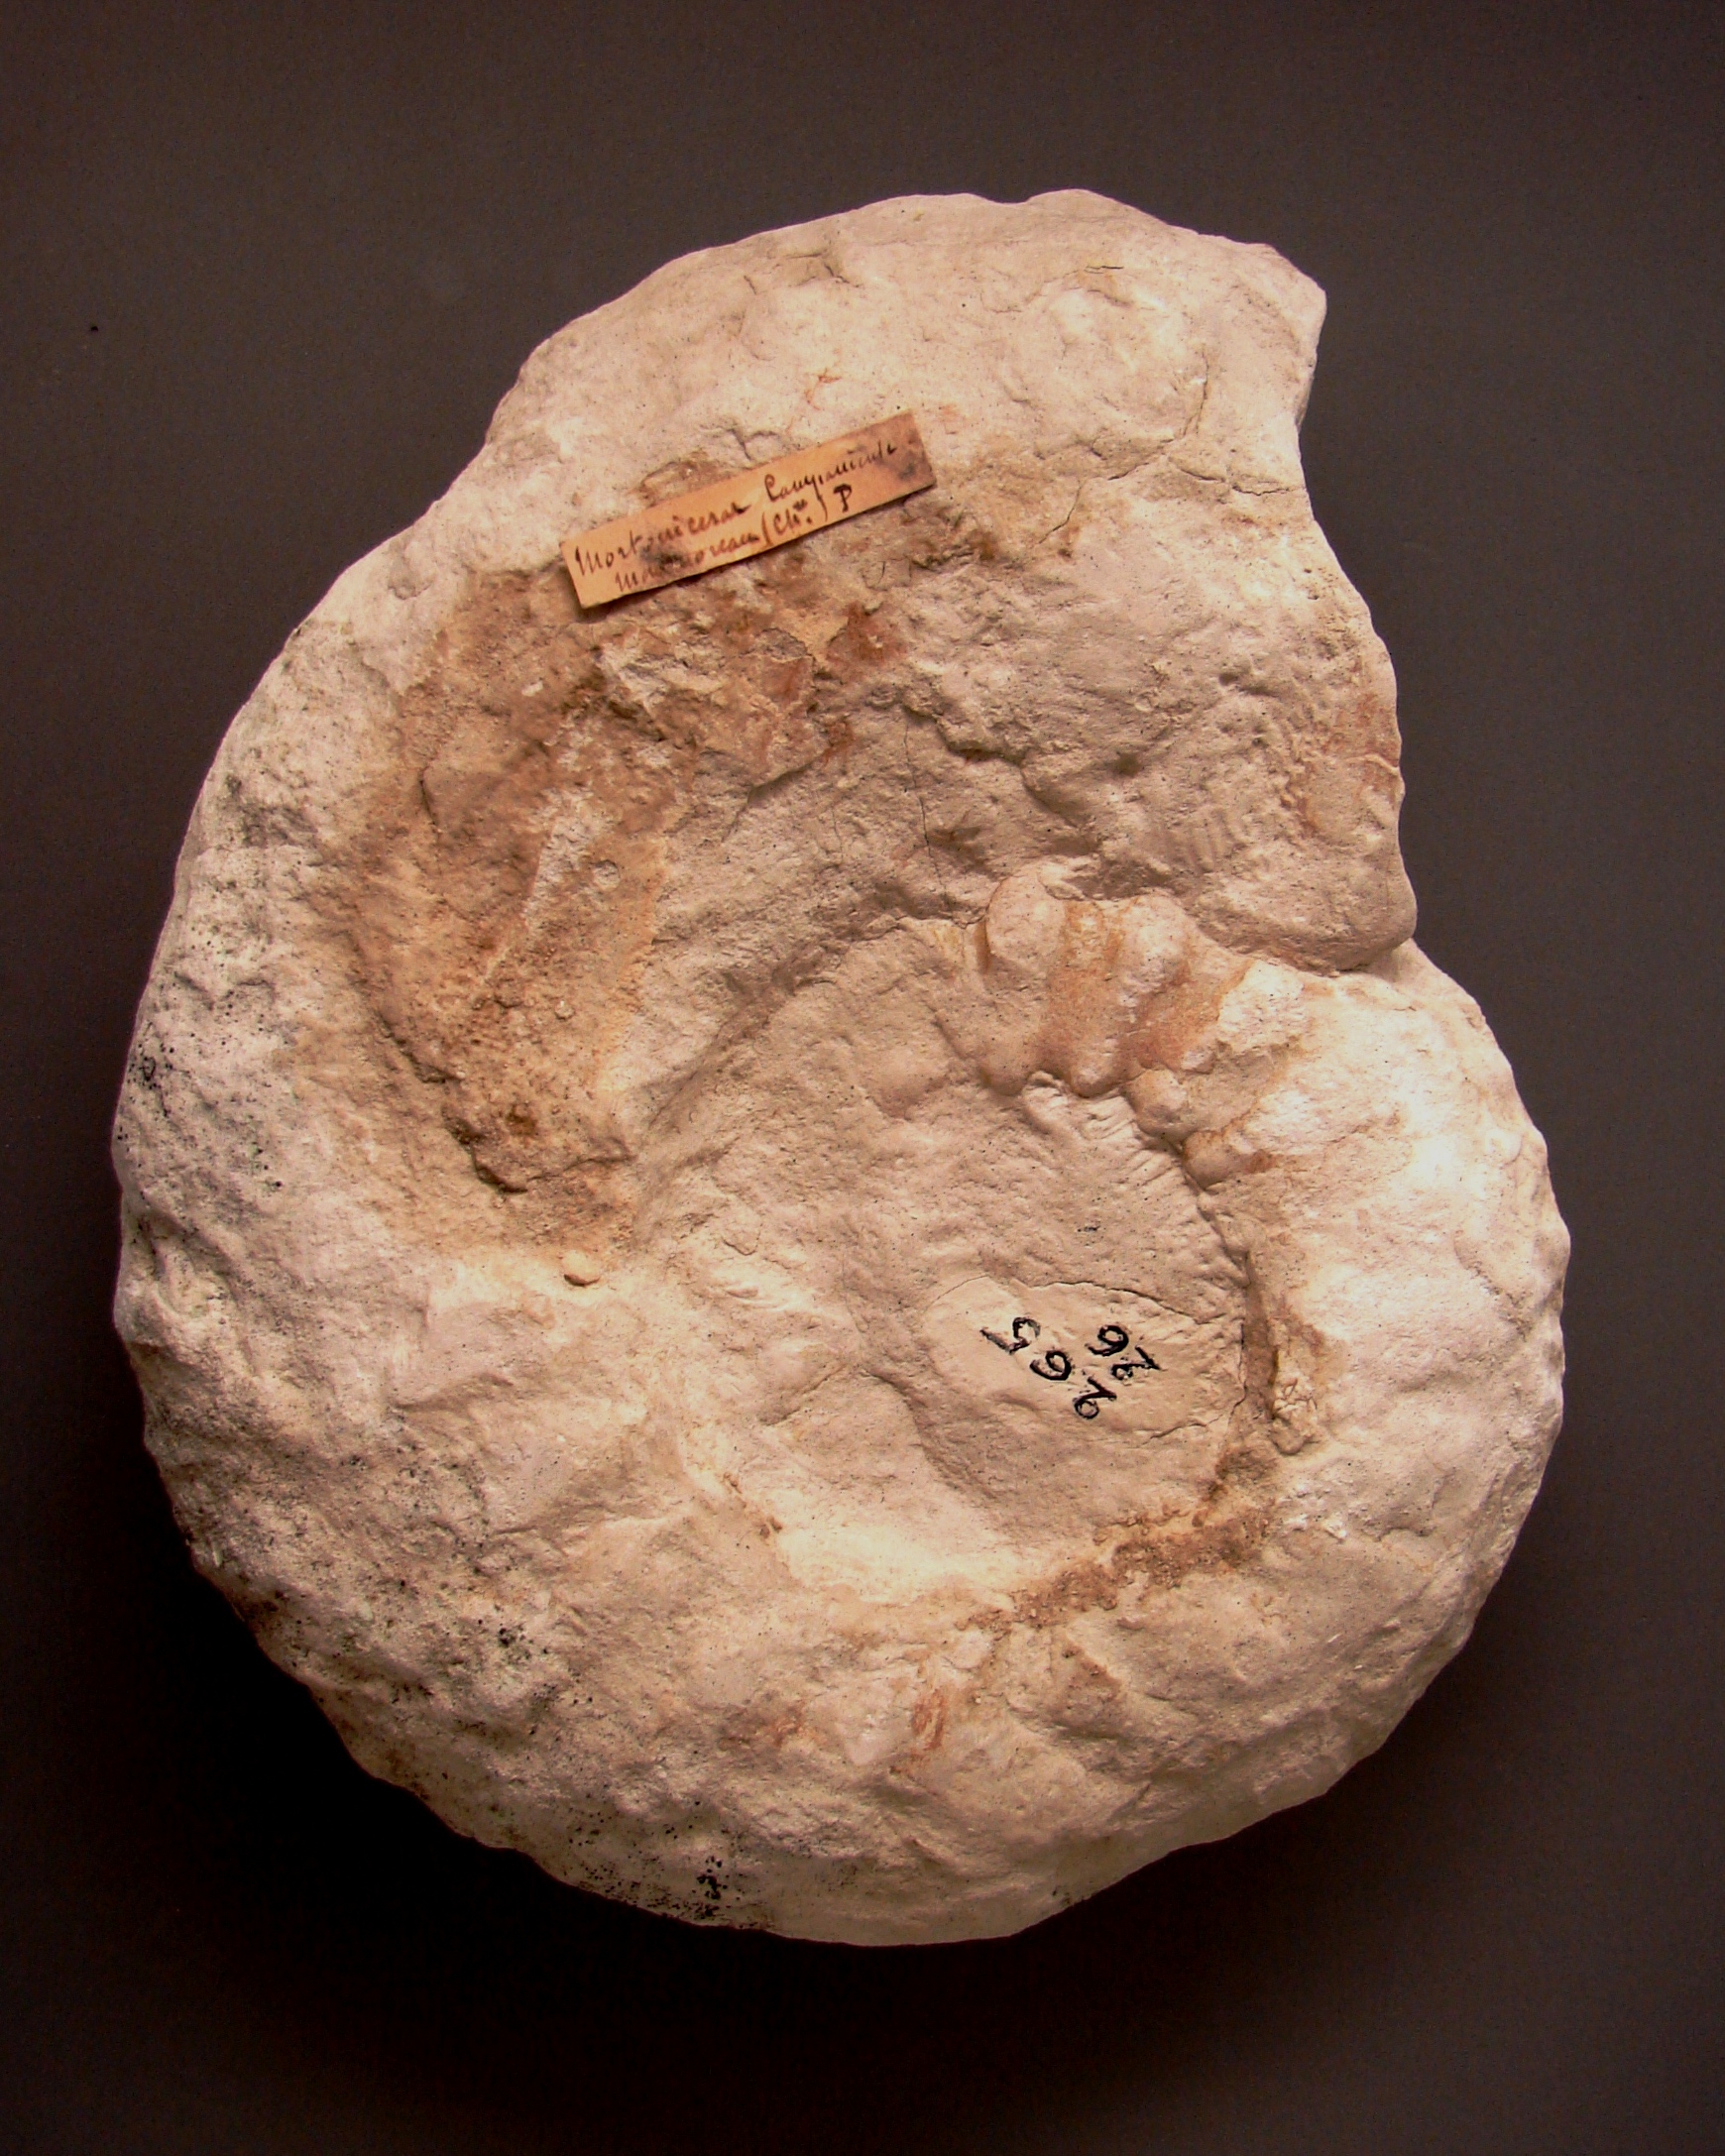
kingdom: Chromista
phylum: Ochrophyta
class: Bacillariophyceae
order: Chaetocerotales
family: Acanthocerataceae
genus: Menabites
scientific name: Menabites campaniense
